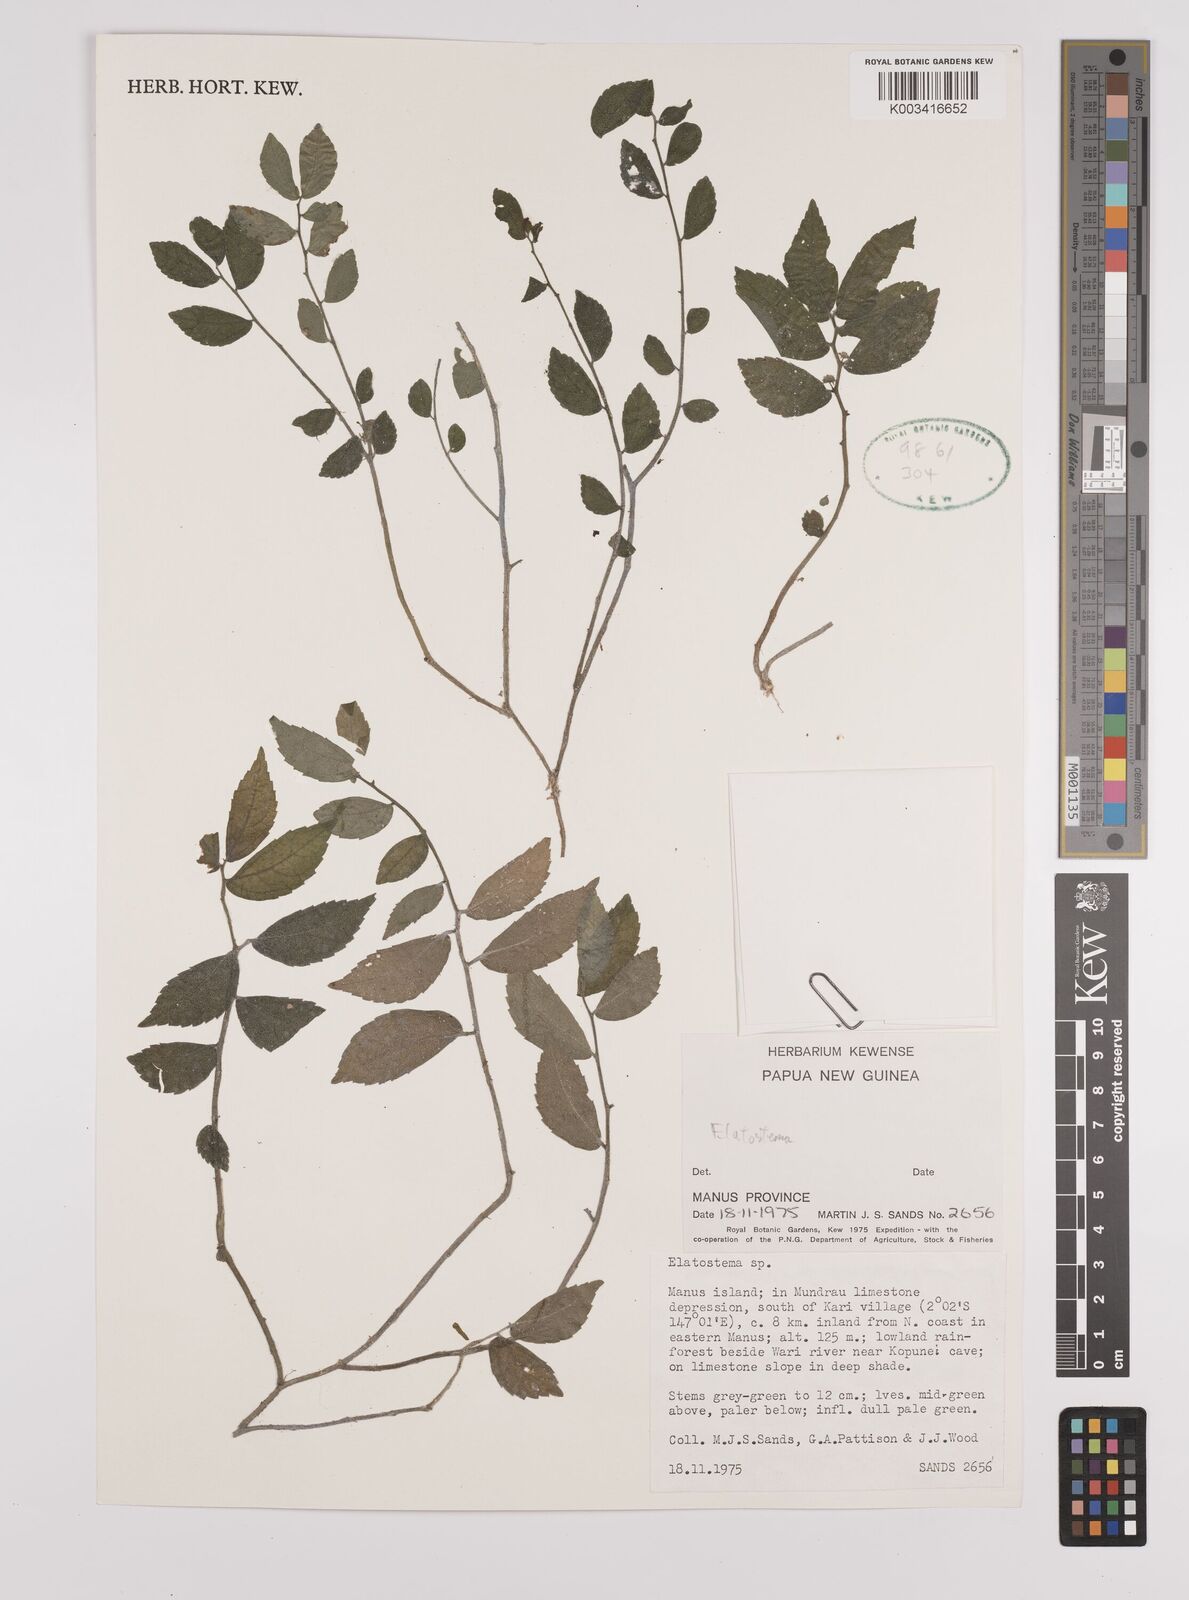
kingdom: Plantae
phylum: Tracheophyta
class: Magnoliopsida
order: Rosales
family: Urticaceae
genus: Elatostema
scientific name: Elatostema
